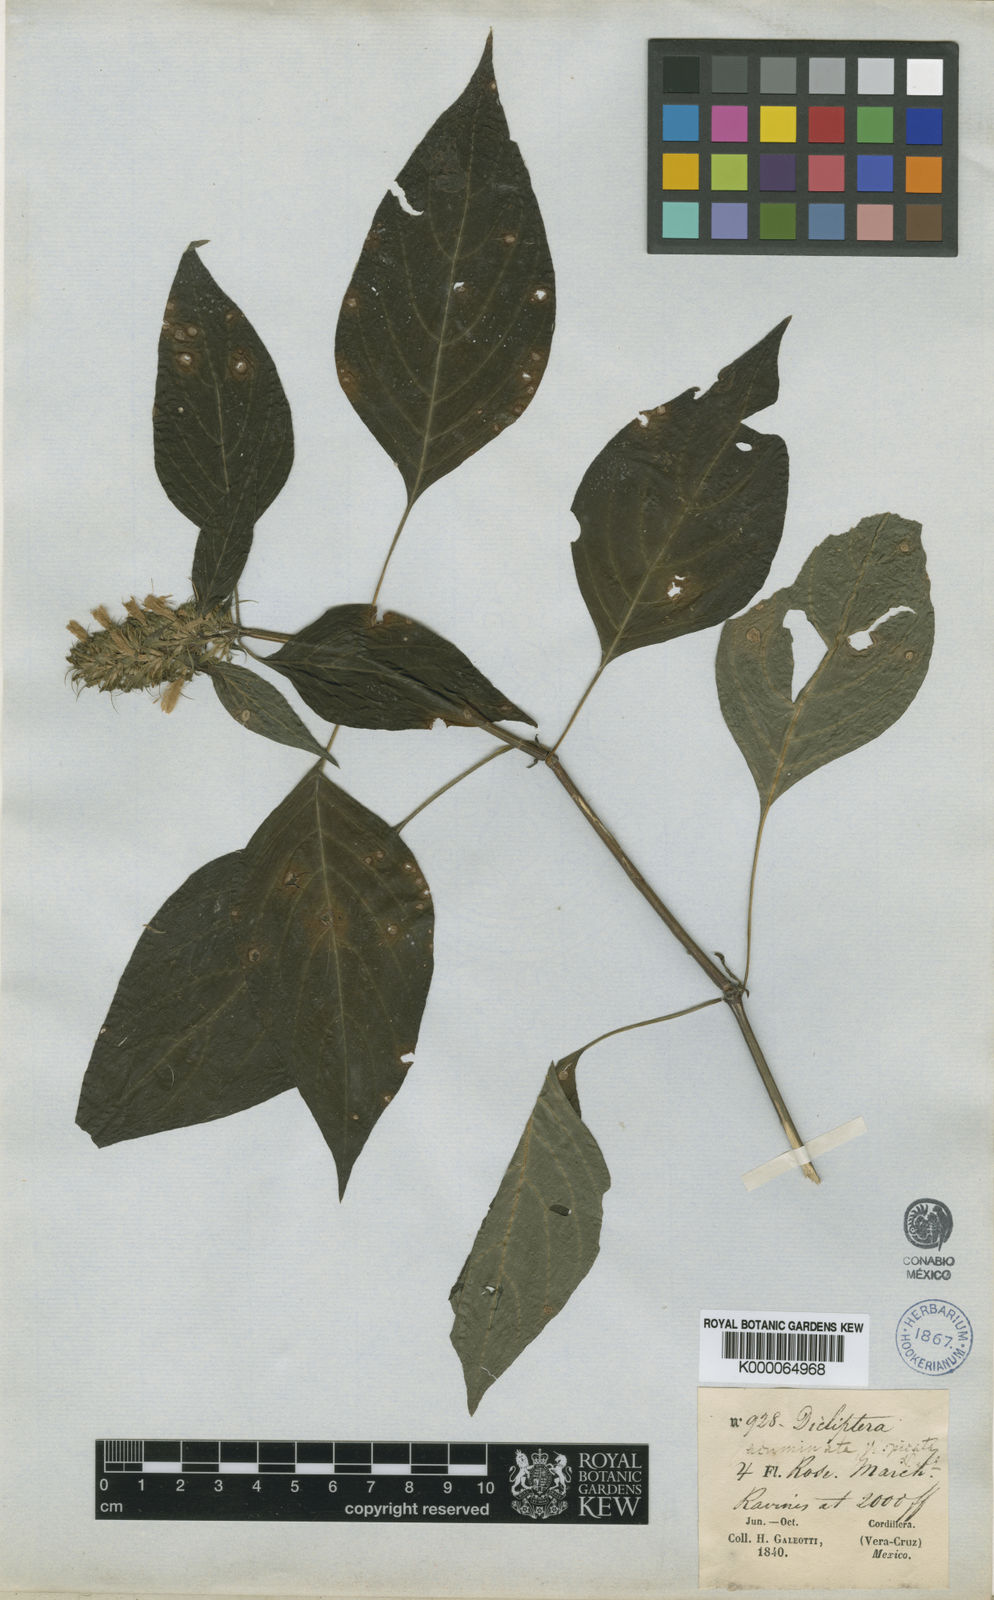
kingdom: Plantae
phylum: Tracheophyta
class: Magnoliopsida
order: Lamiales
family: Acanthaceae
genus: Dicliptera
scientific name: Dicliptera acuminata
